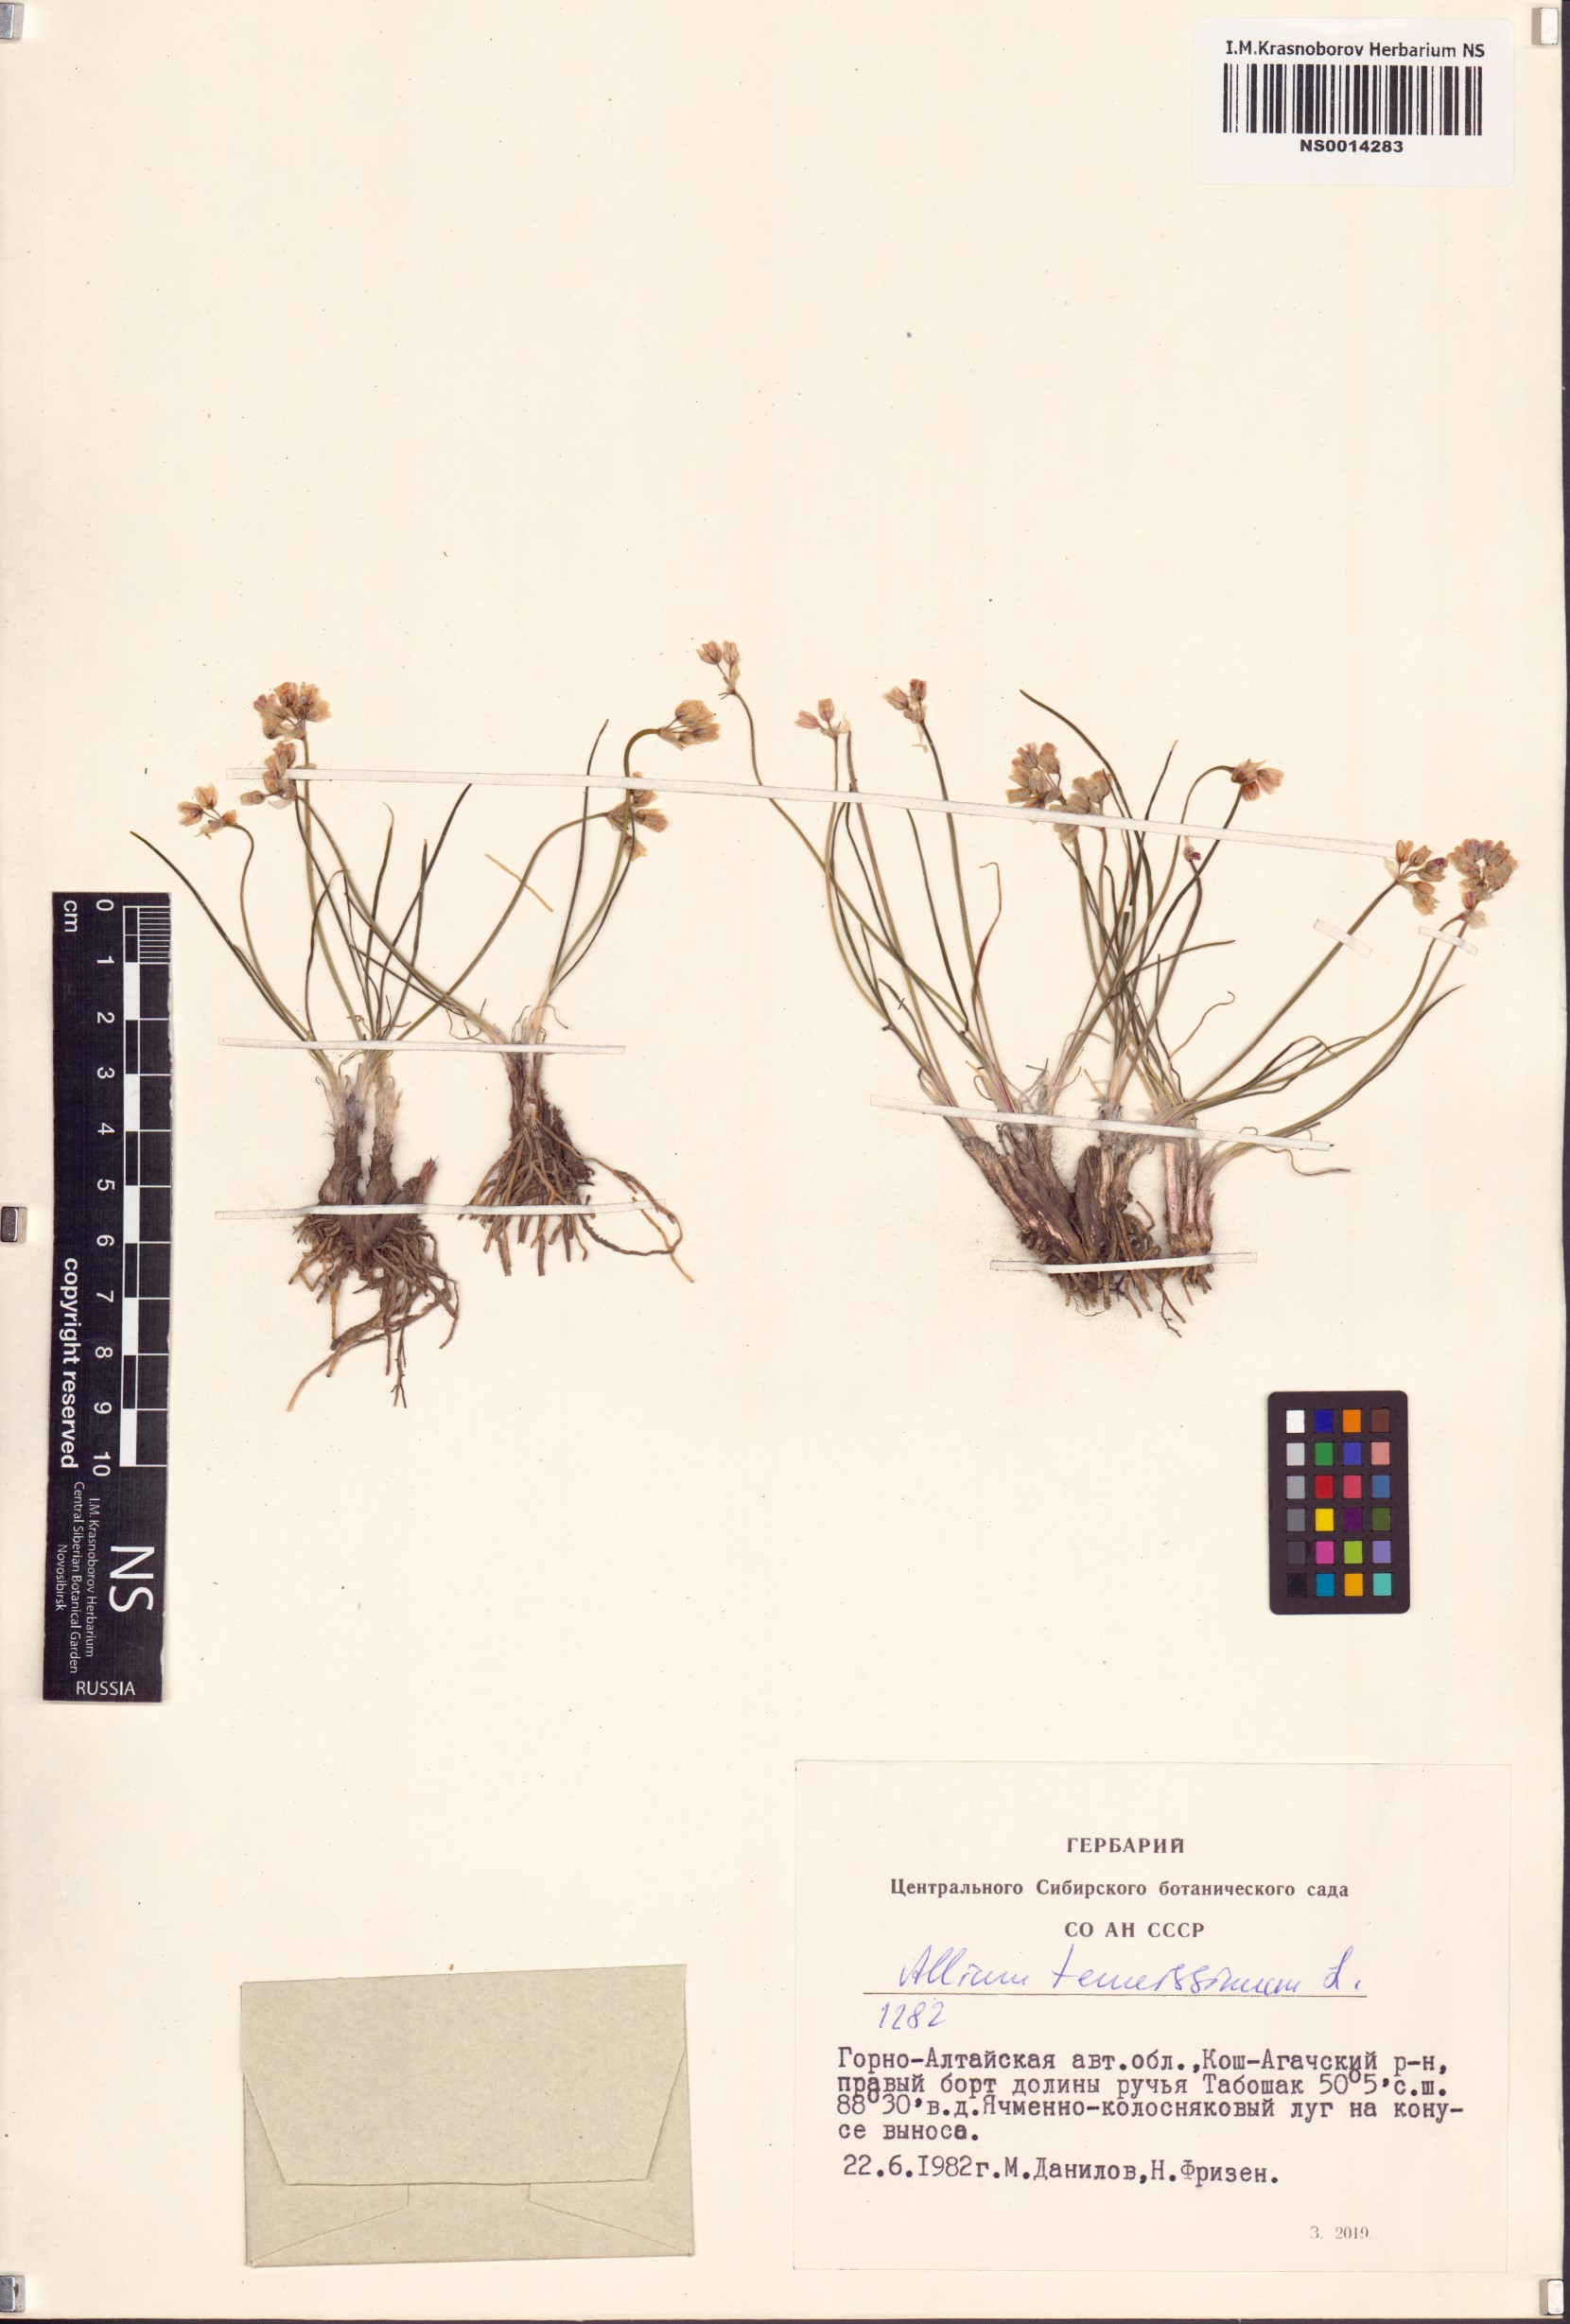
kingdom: Plantae
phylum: Tracheophyta
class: Liliopsida
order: Asparagales
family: Amaryllidaceae
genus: Allium
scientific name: Allium tenuissimum
